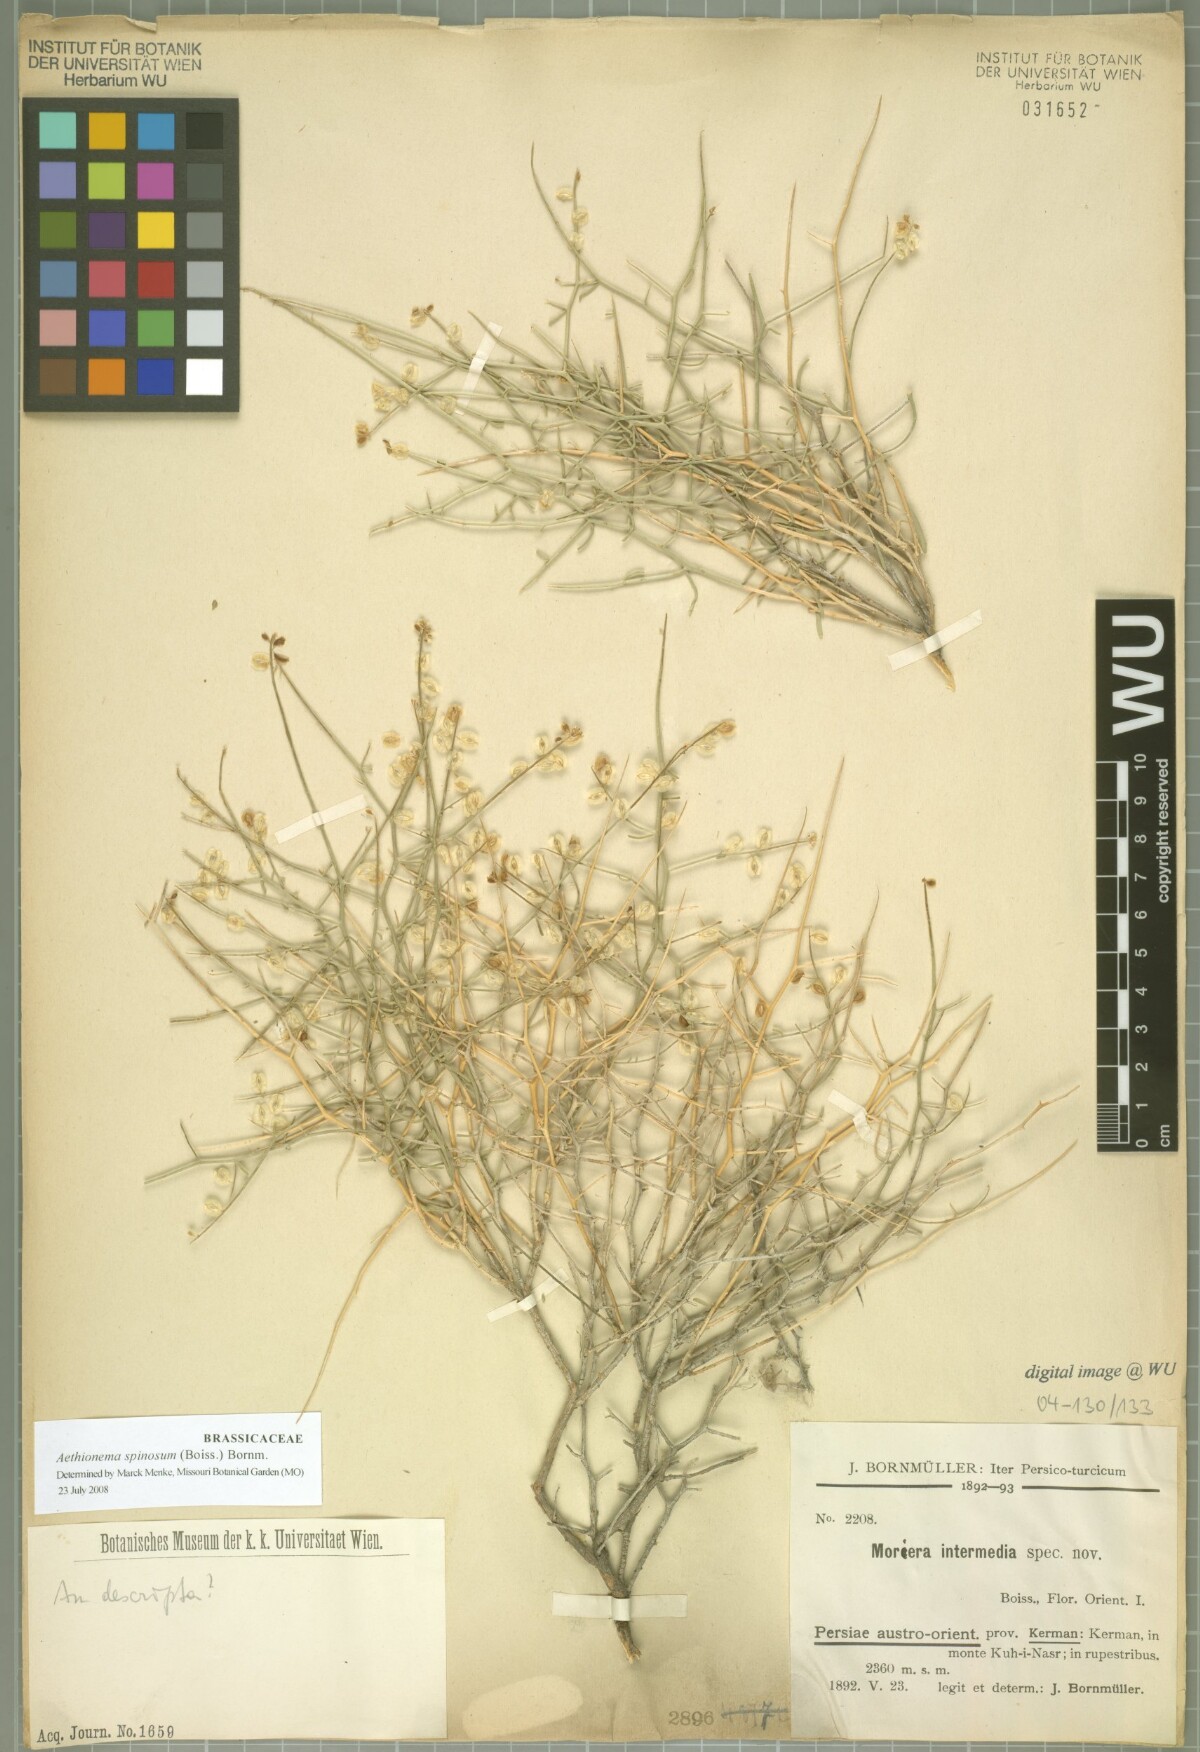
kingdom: Plantae
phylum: Tracheophyta
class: Magnoliopsida
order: Brassicales
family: Brassicaceae
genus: Moriera
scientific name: Moriera
